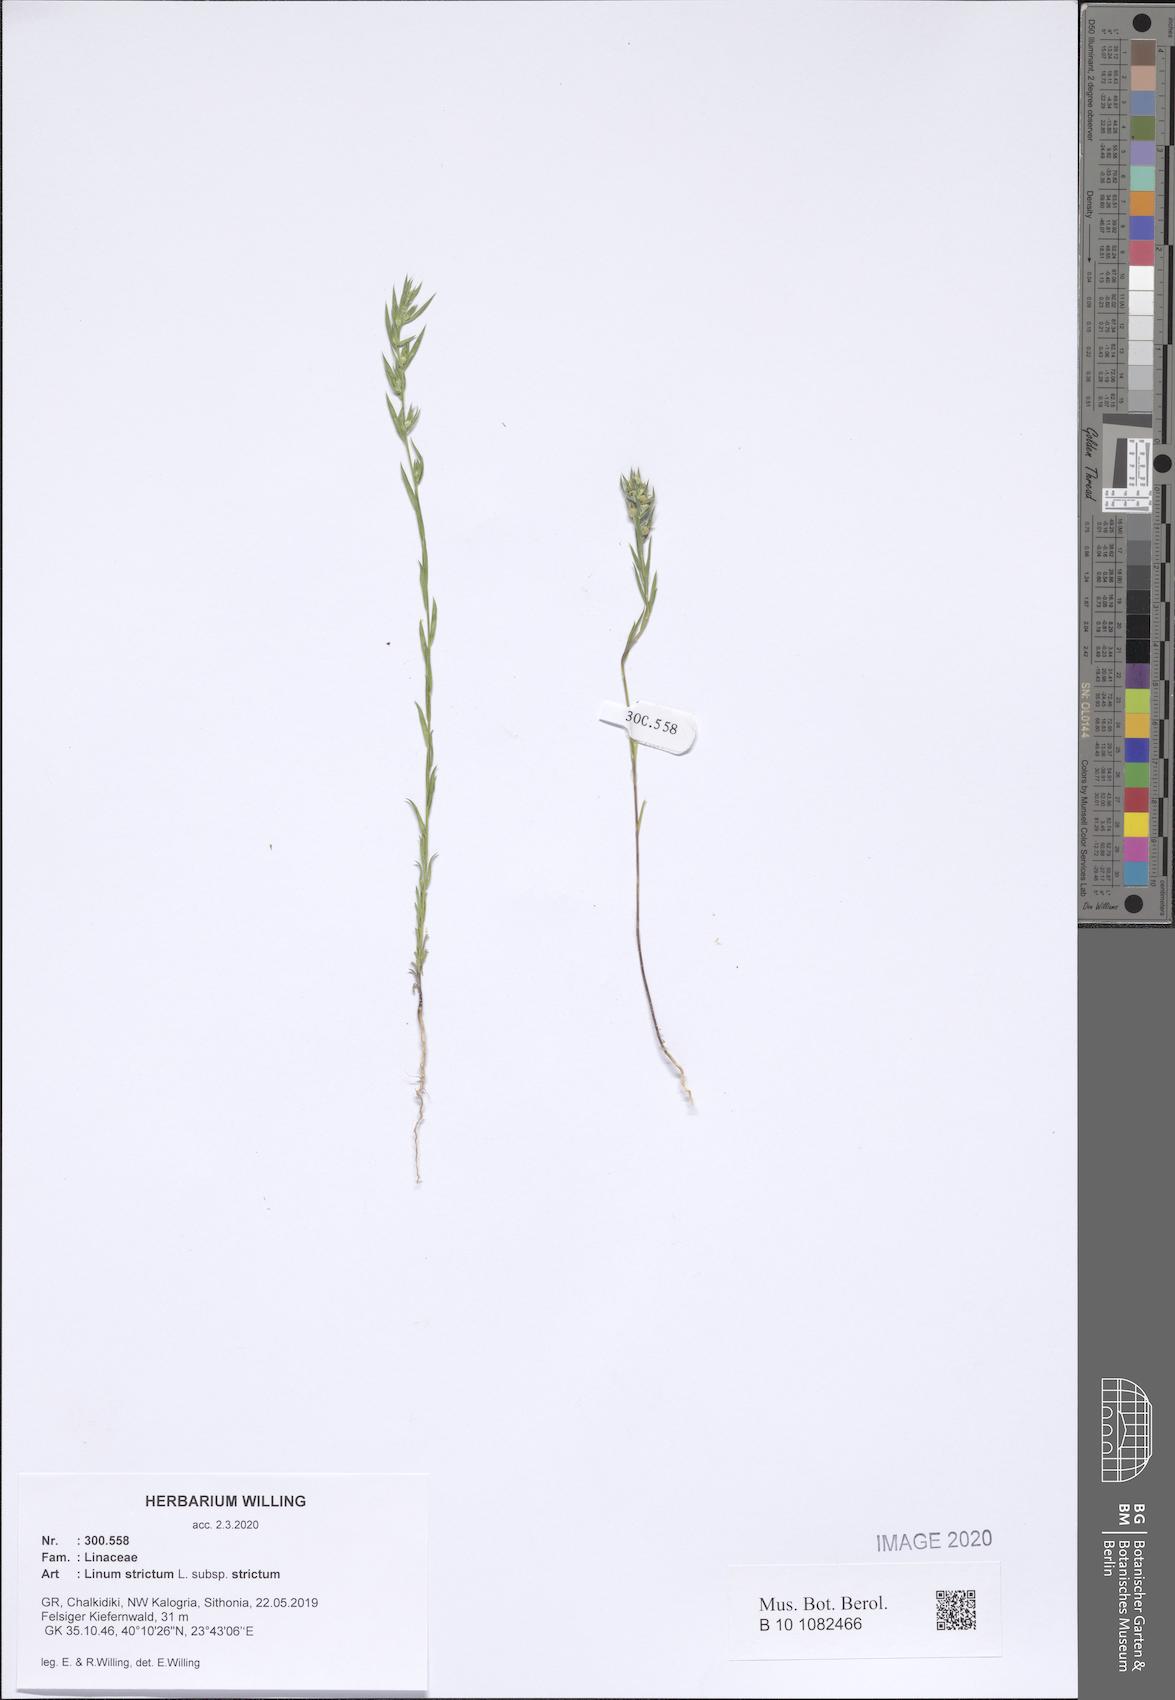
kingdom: Plantae
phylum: Tracheophyta
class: Magnoliopsida
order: Malpighiales
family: Linaceae
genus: Linum
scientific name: Linum strictum
